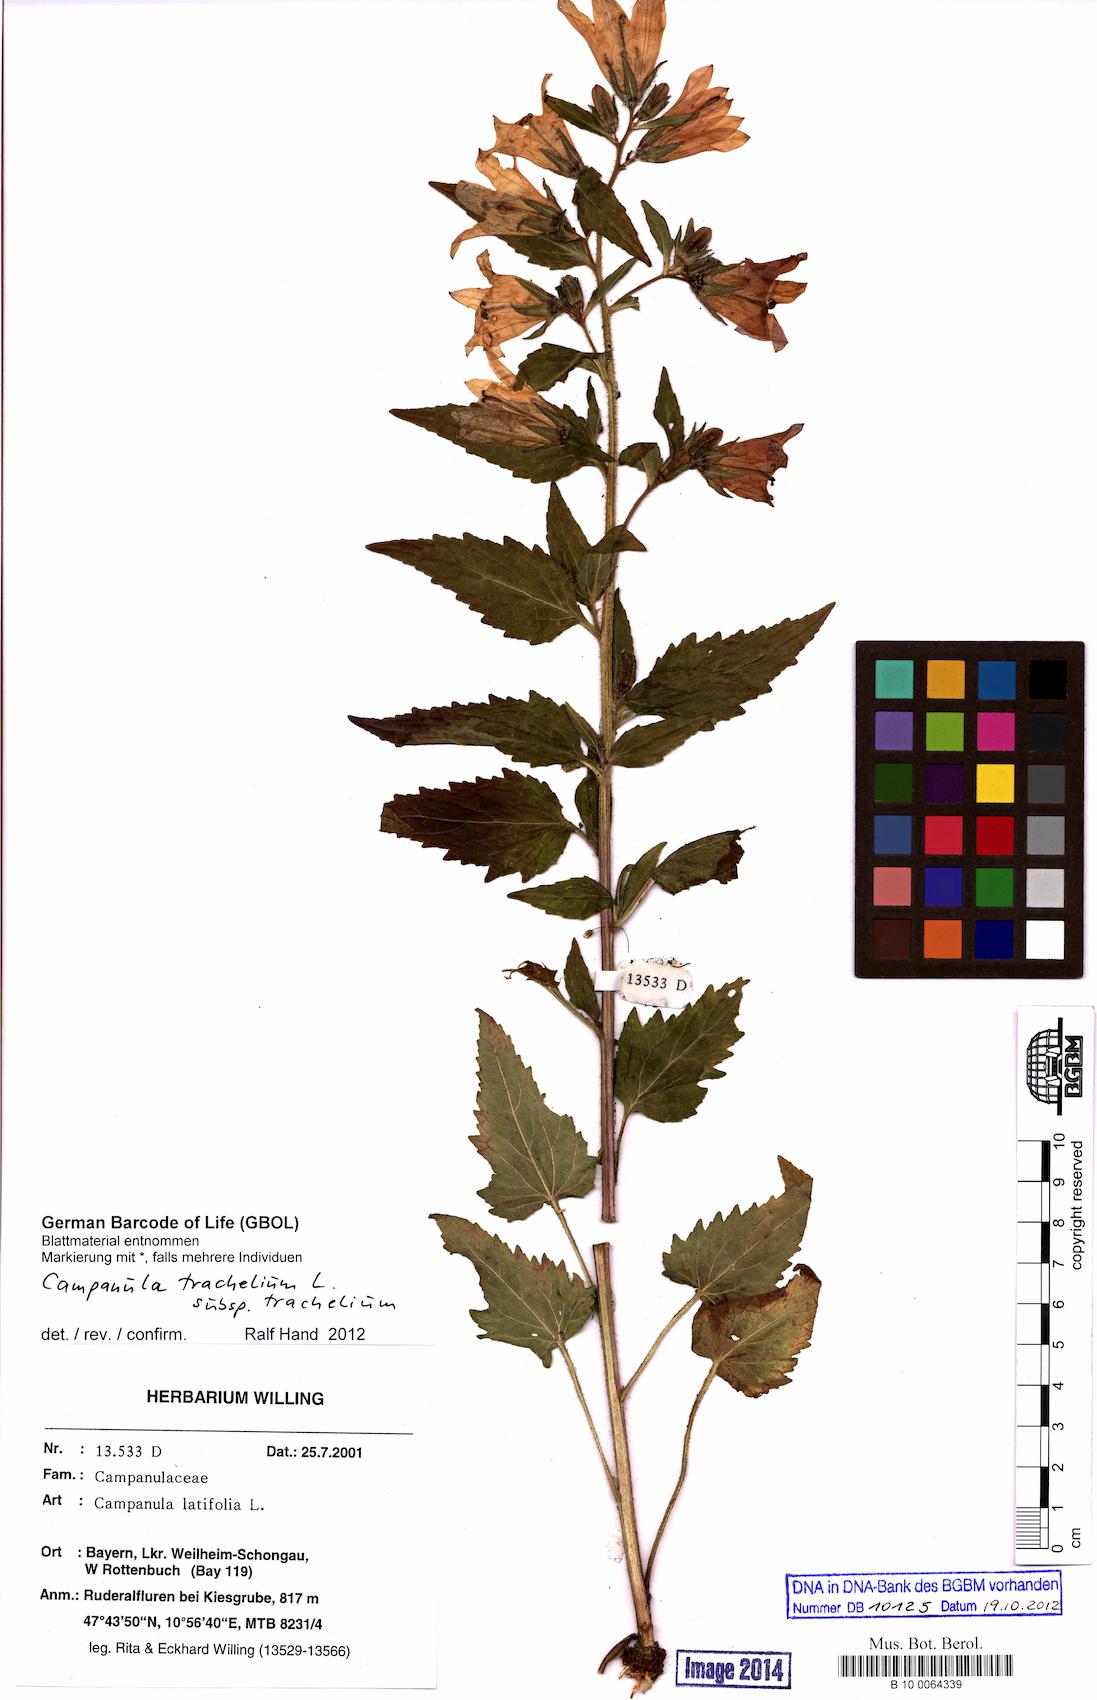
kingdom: Plantae
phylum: Tracheophyta
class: Magnoliopsida
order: Asterales
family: Campanulaceae
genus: Campanula
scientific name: Campanula trachelium
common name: Nettle-leaved bellflower
